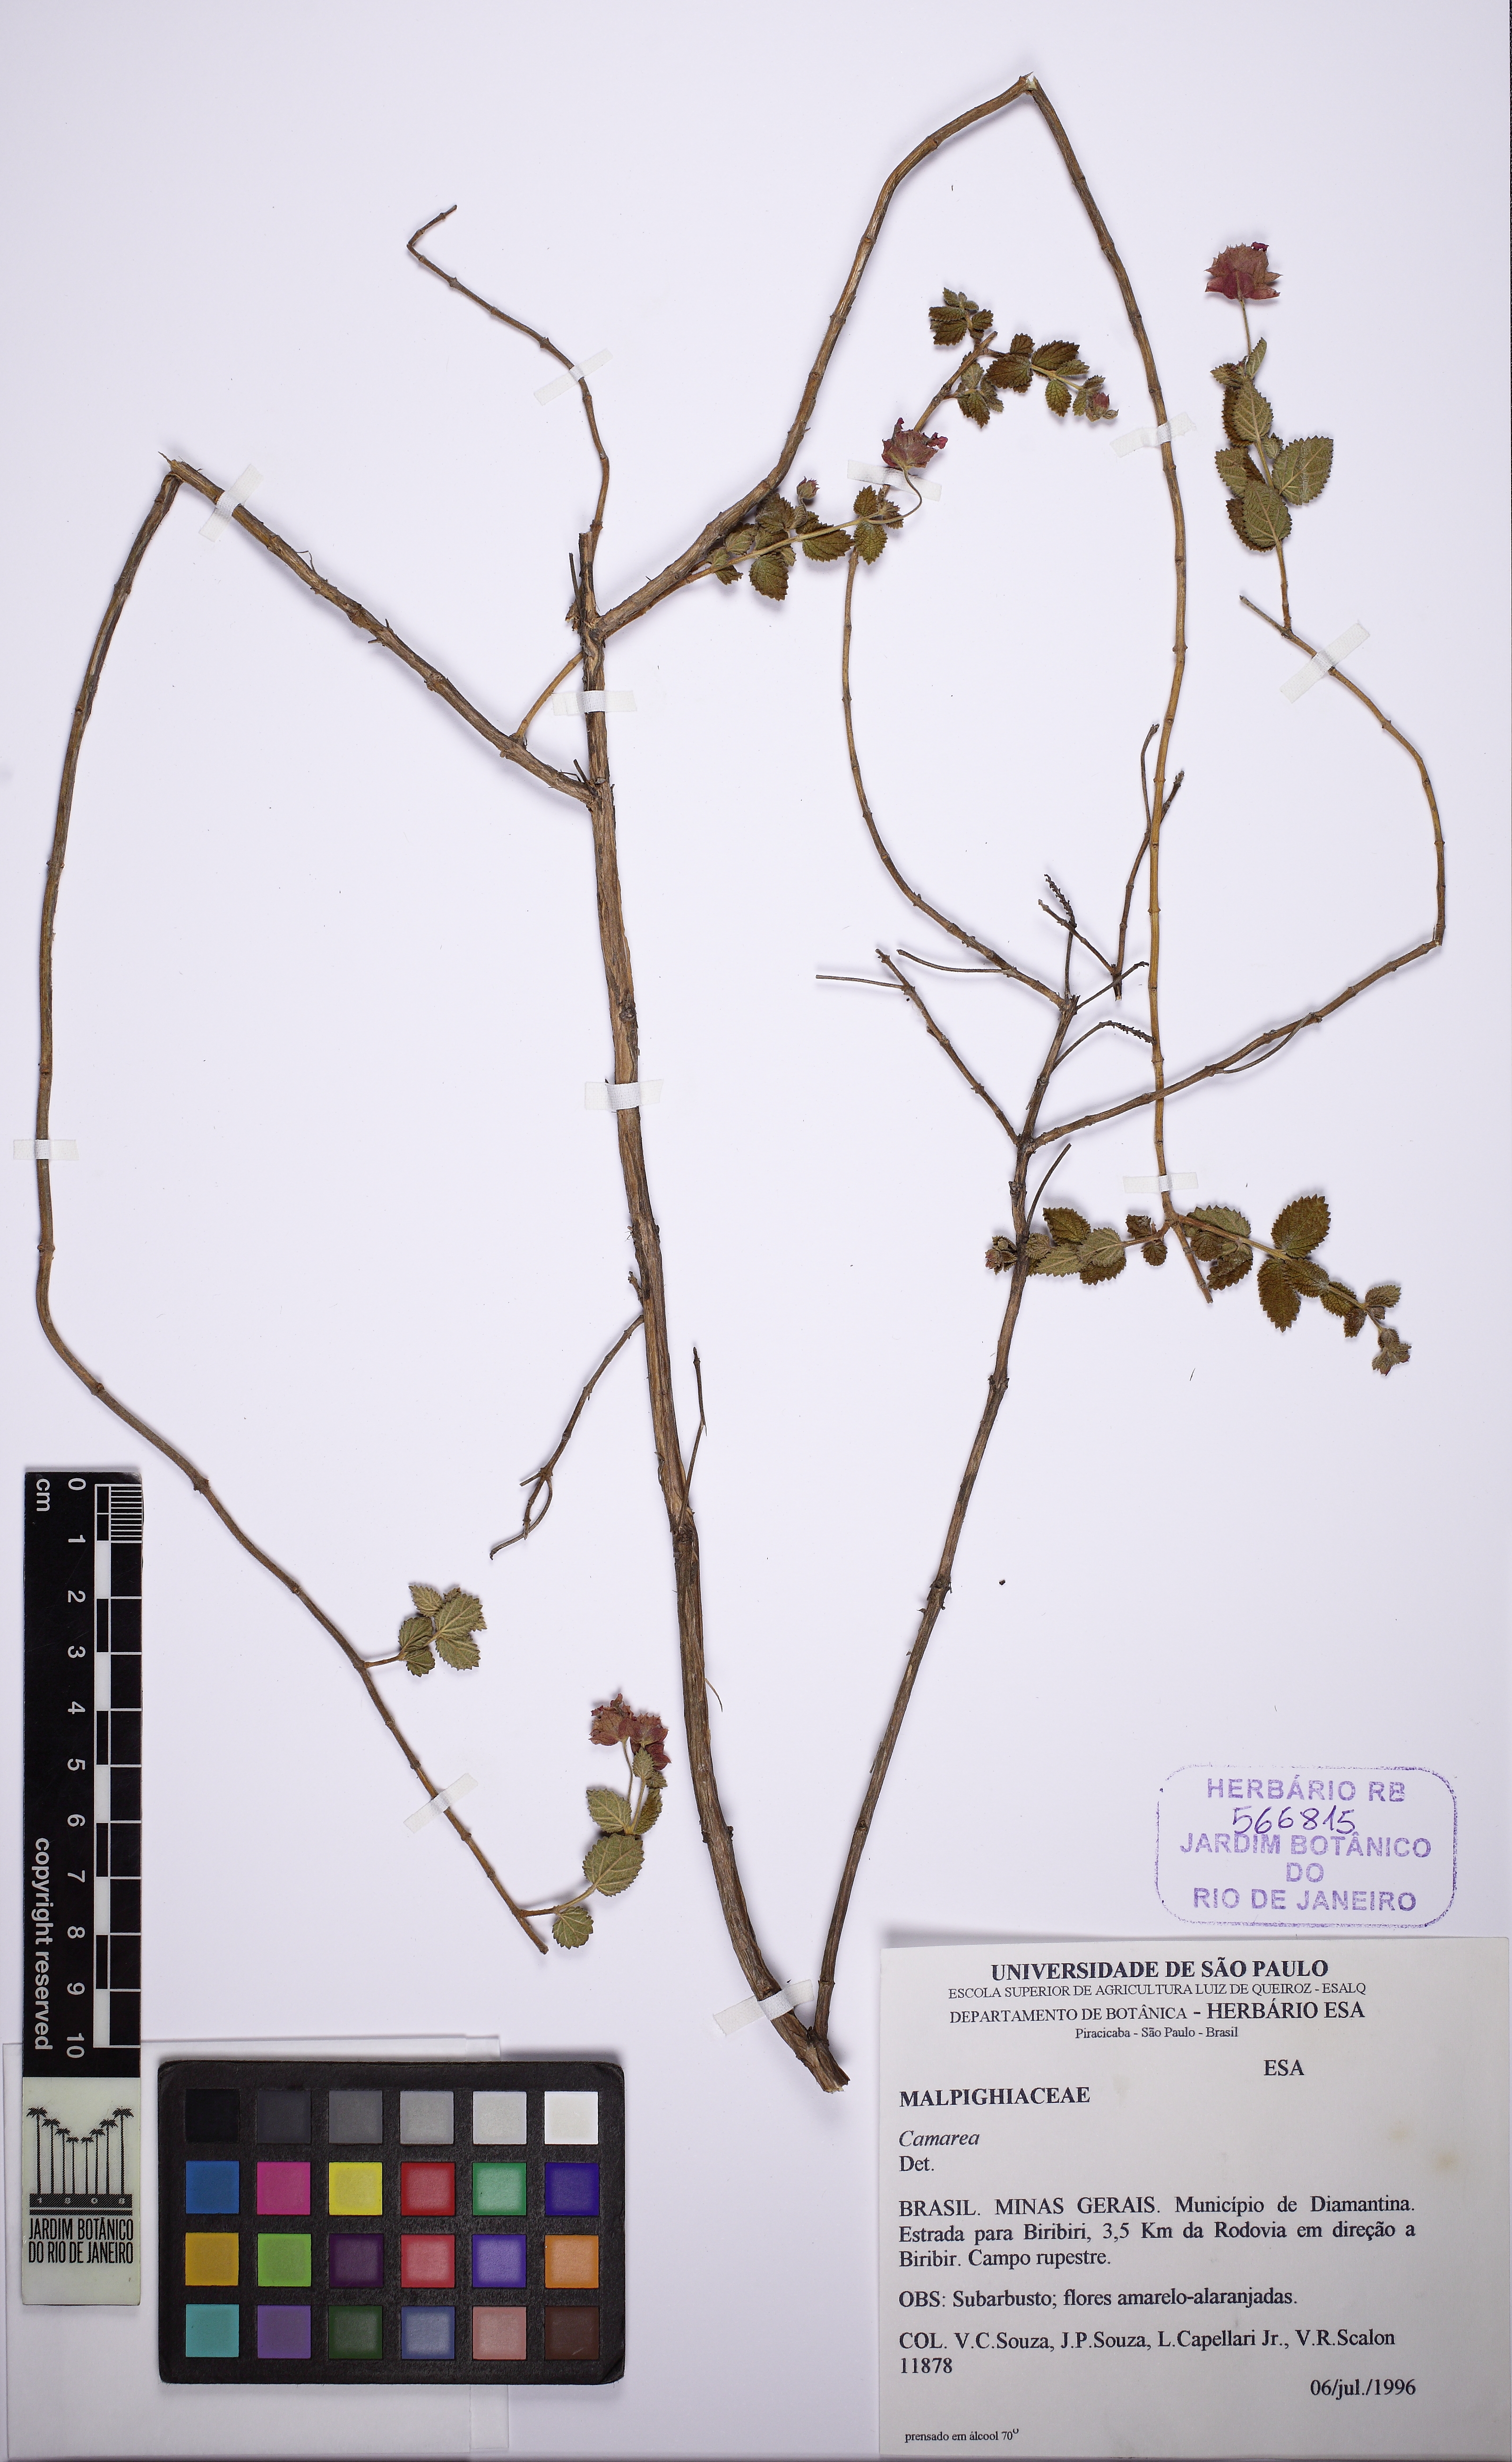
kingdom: Plantae
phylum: Tracheophyta
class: Magnoliopsida
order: Malvales
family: Malvaceae
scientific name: Malvaceae
